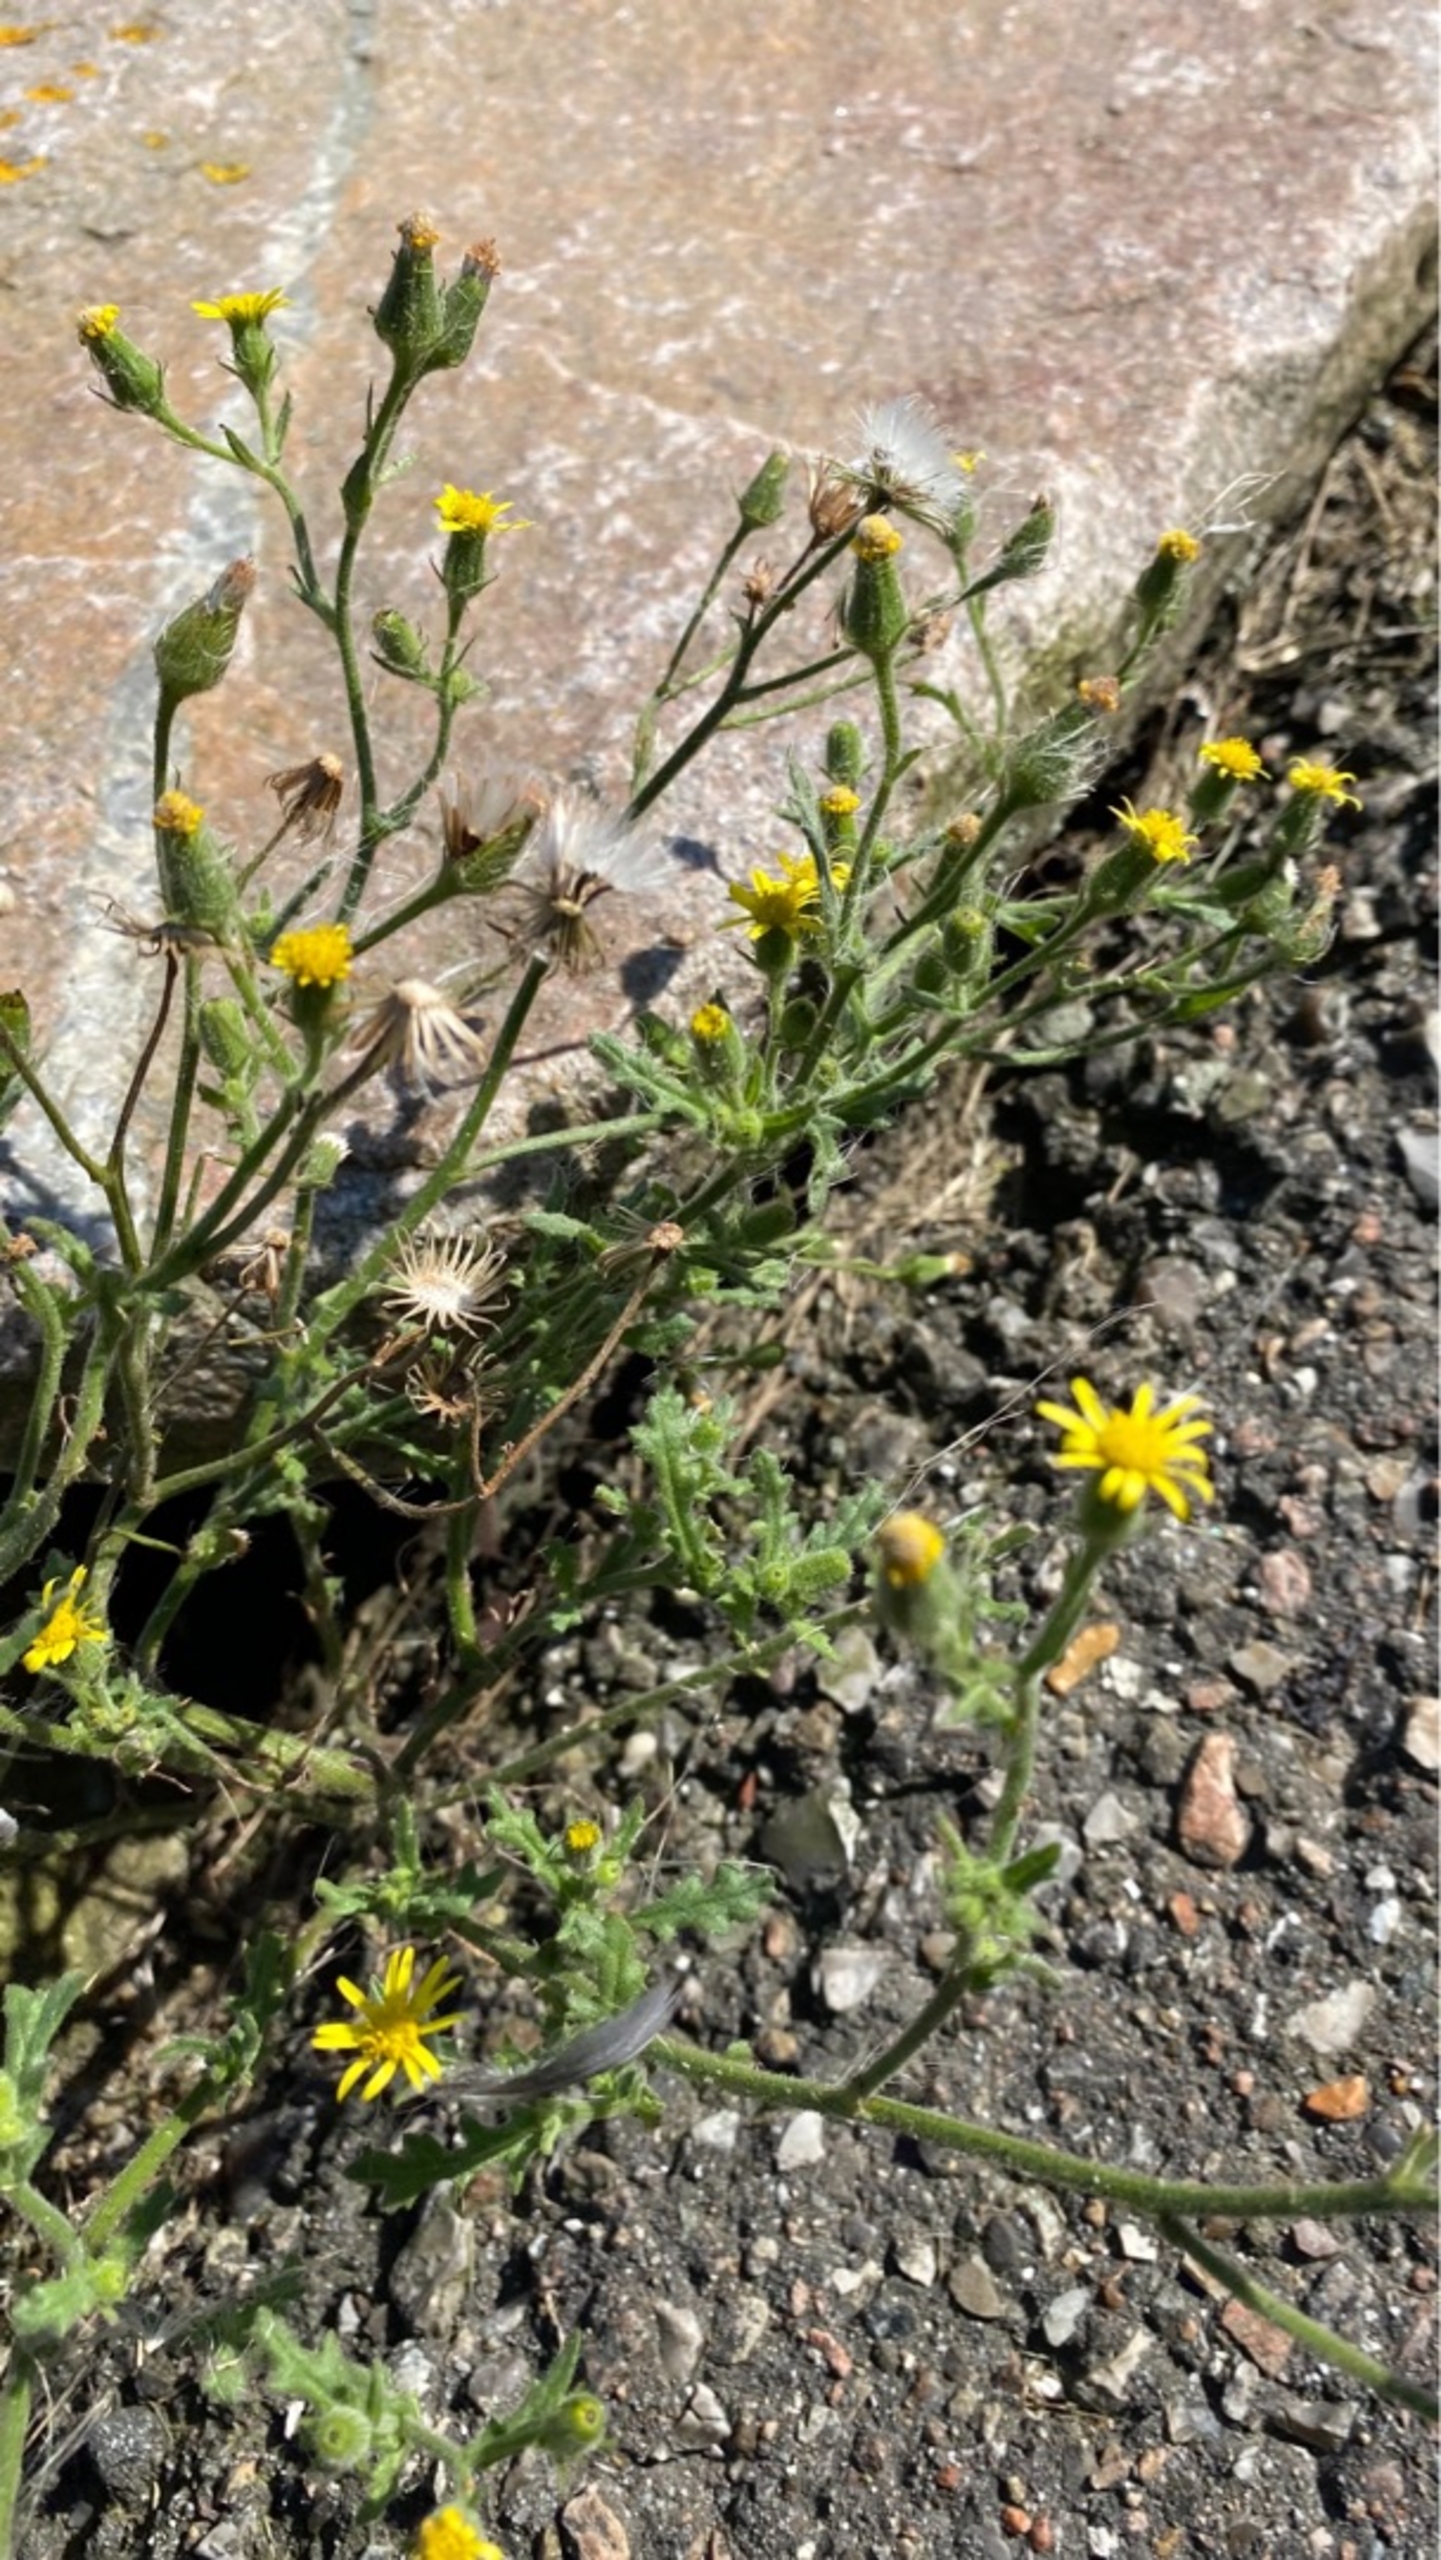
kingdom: Plantae
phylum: Tracheophyta
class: Magnoliopsida
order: Asterales
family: Asteraceae
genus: Senecio
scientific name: Senecio viscosus
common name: Klæbrig brandbæger
